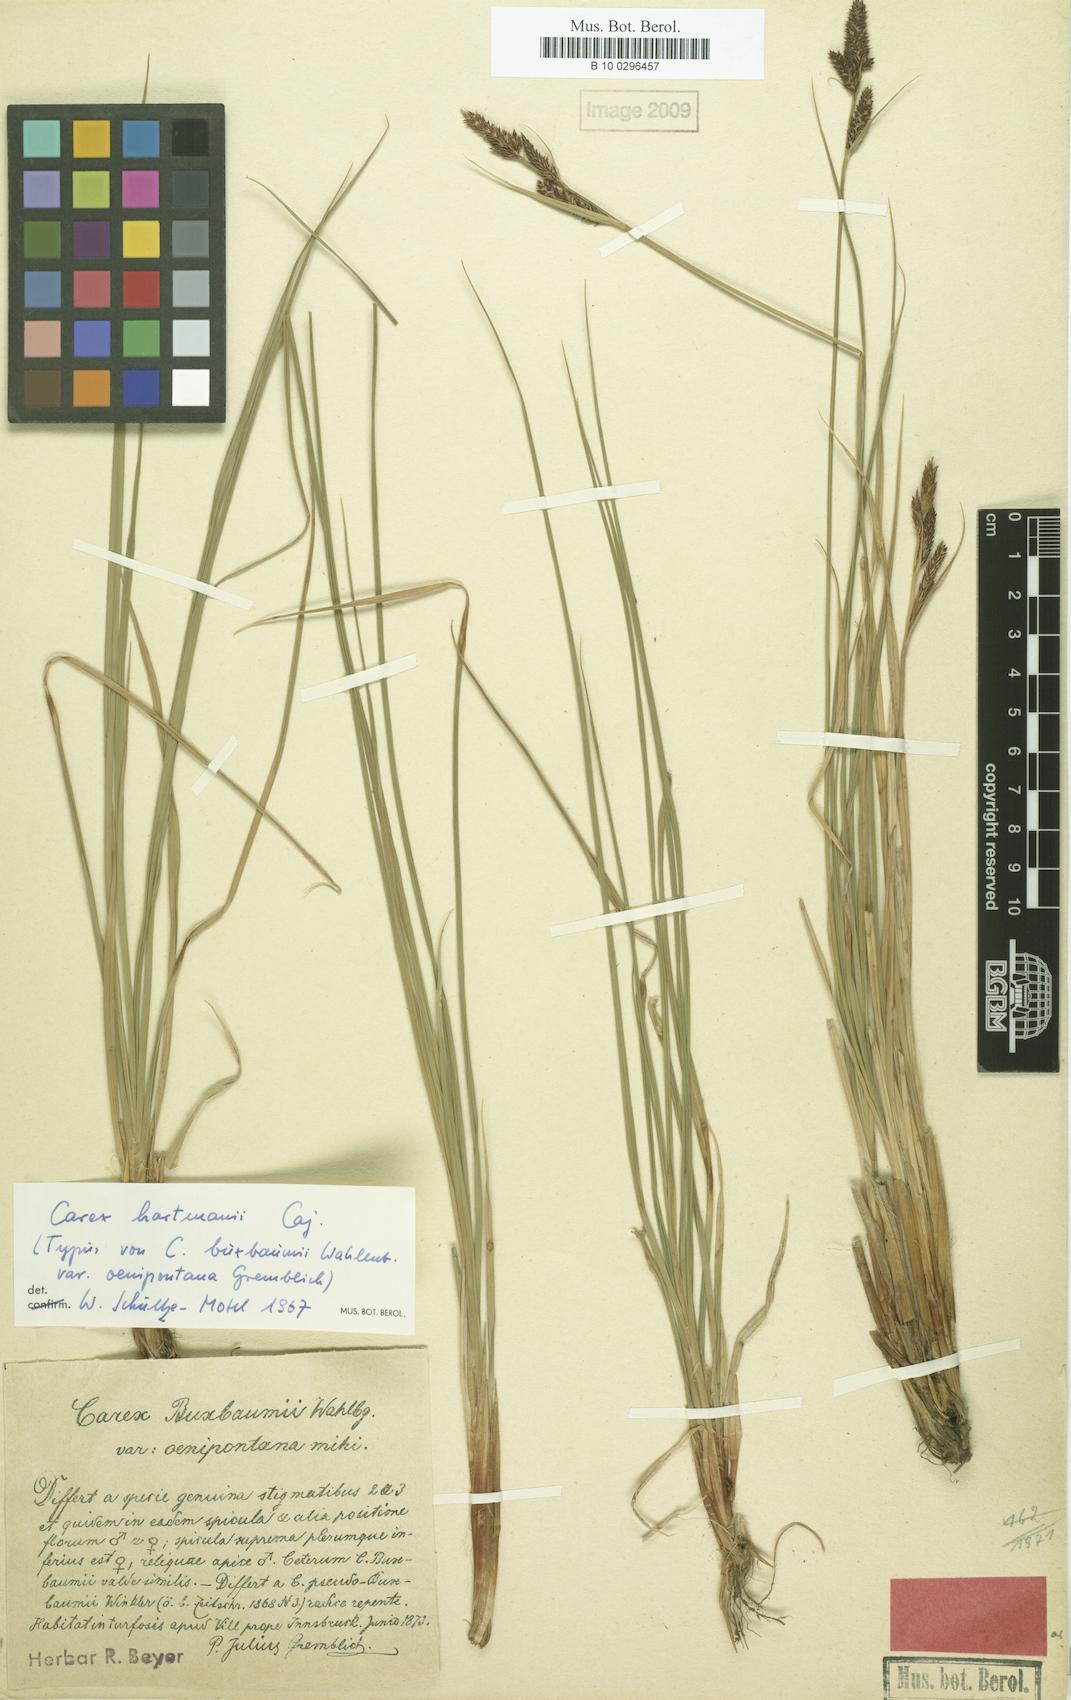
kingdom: Plantae
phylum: Tracheophyta
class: Liliopsida
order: Poales
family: Cyperaceae
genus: Carex
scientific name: Carex hartmaniorum
